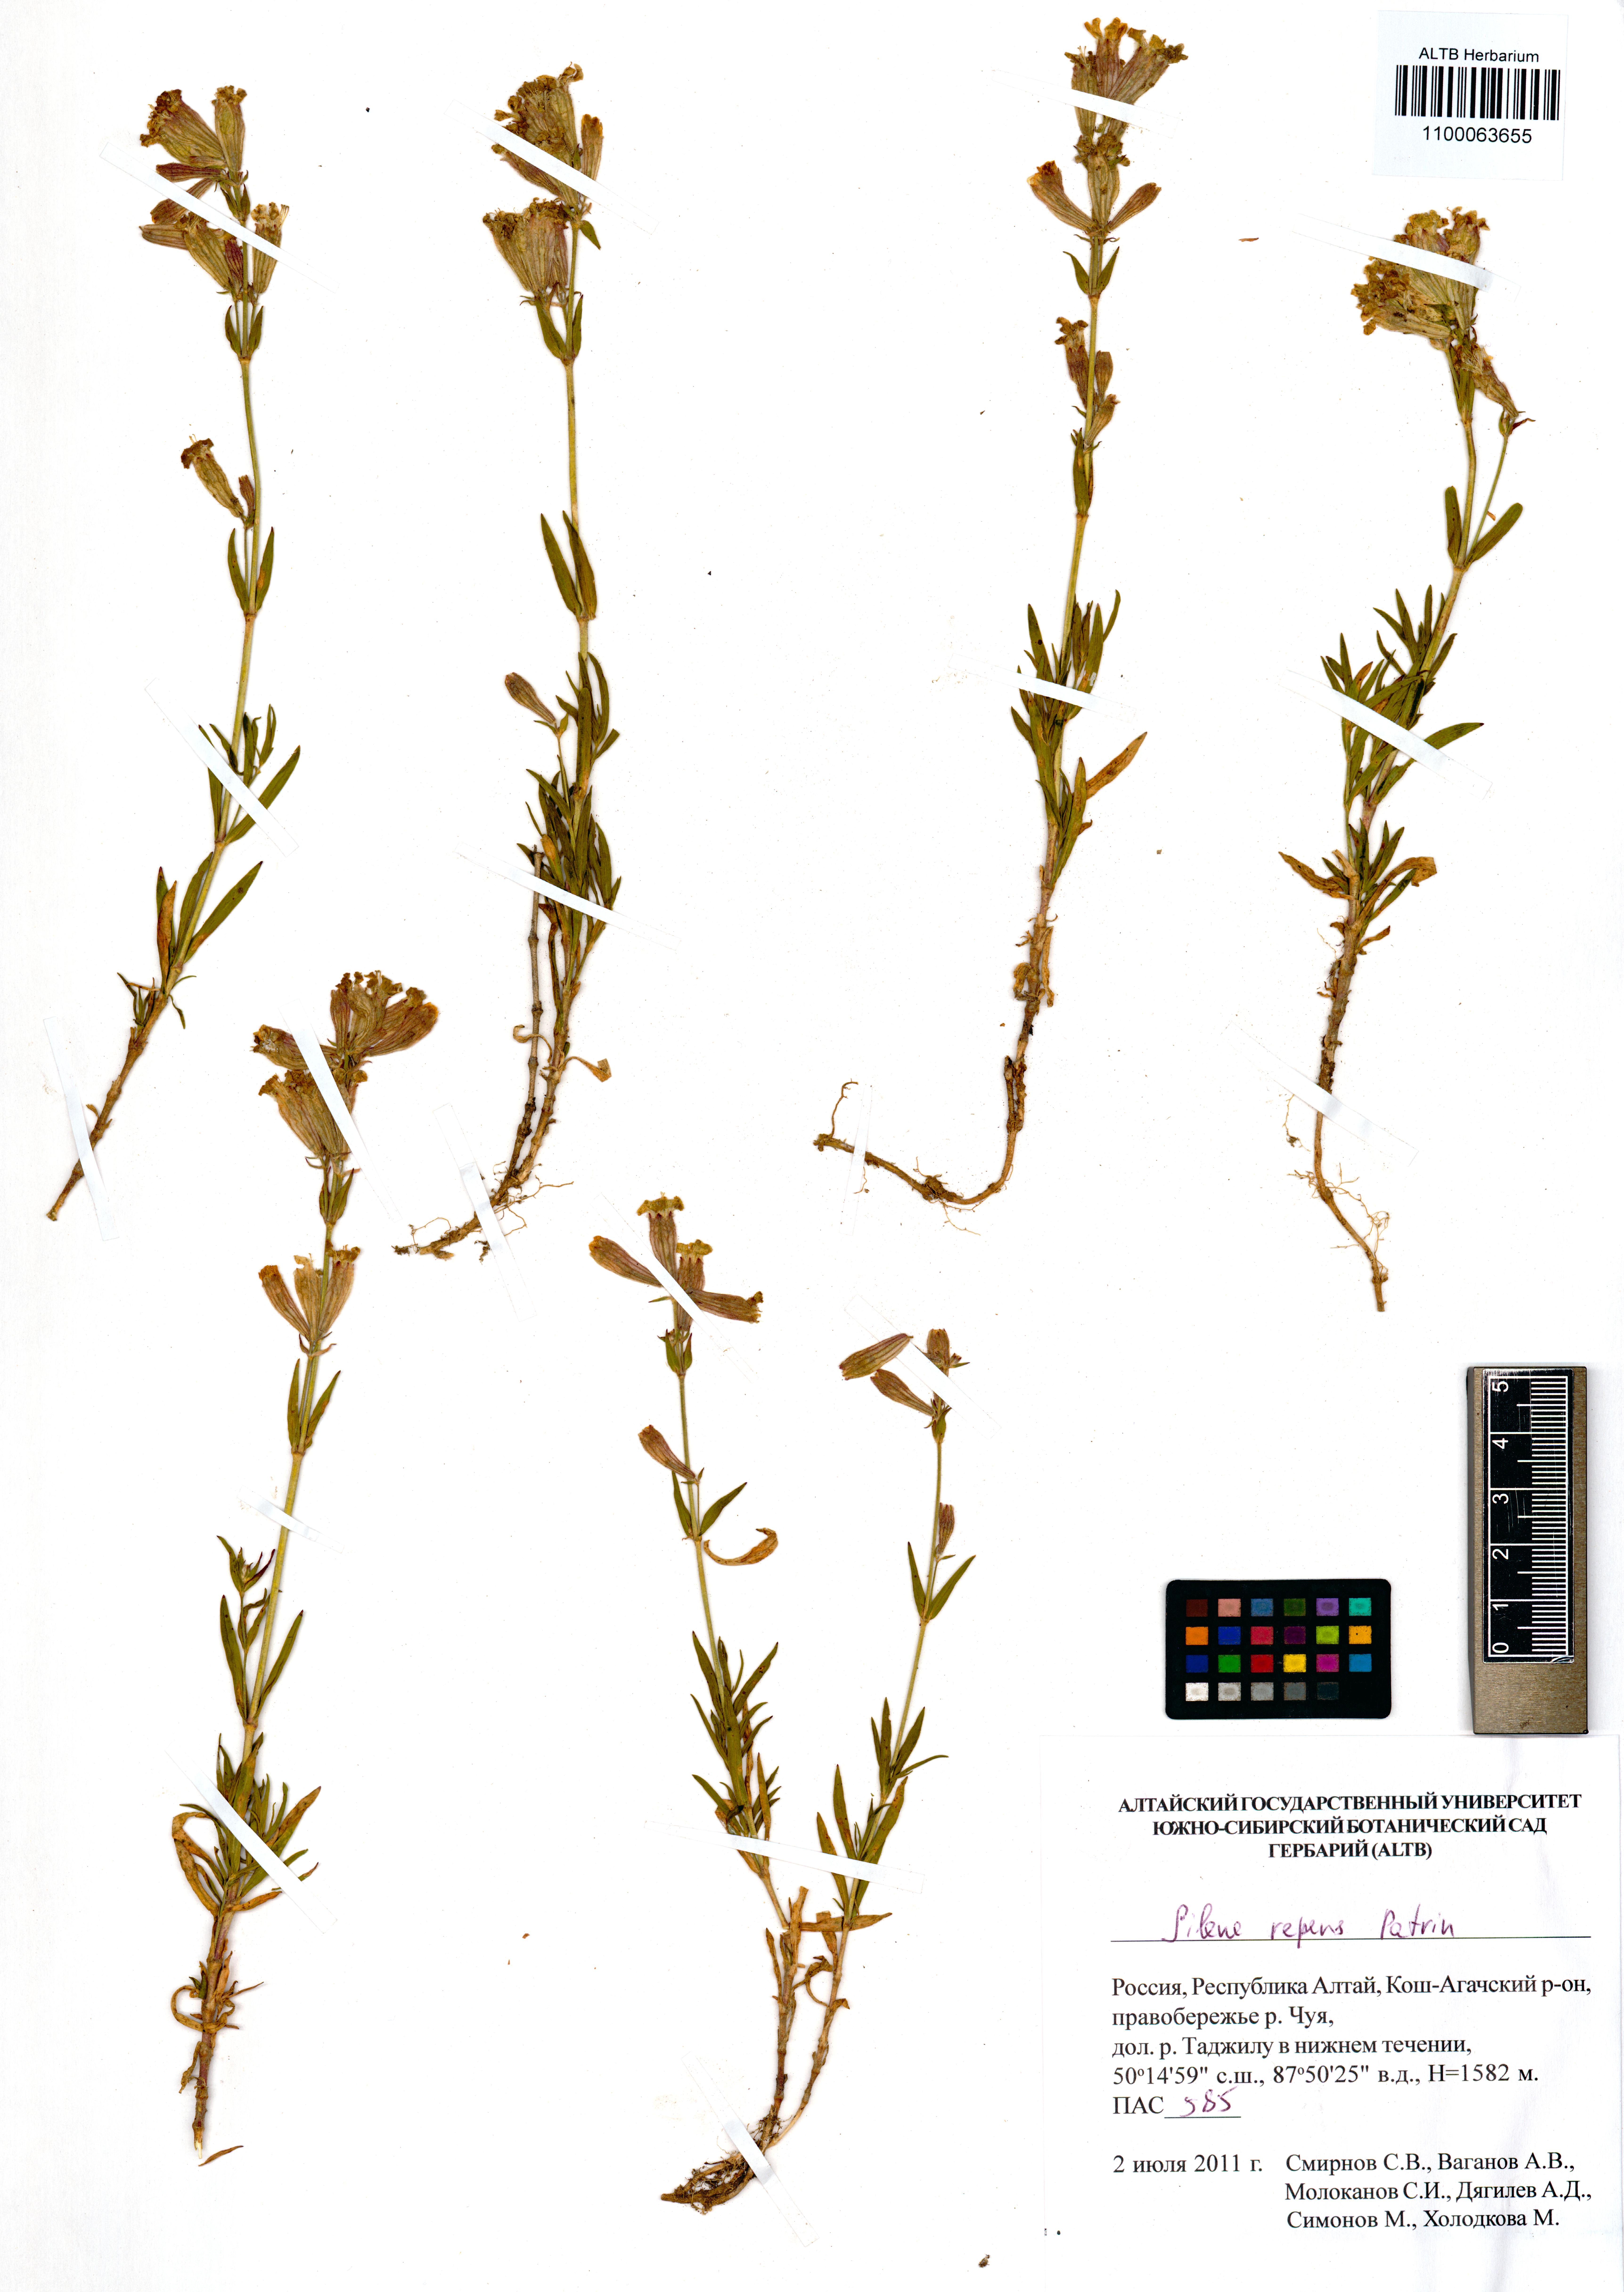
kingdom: Plantae
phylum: Tracheophyta
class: Magnoliopsida
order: Caryophyllales
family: Caryophyllaceae
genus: Silene
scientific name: Silene repens
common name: Pink campion
